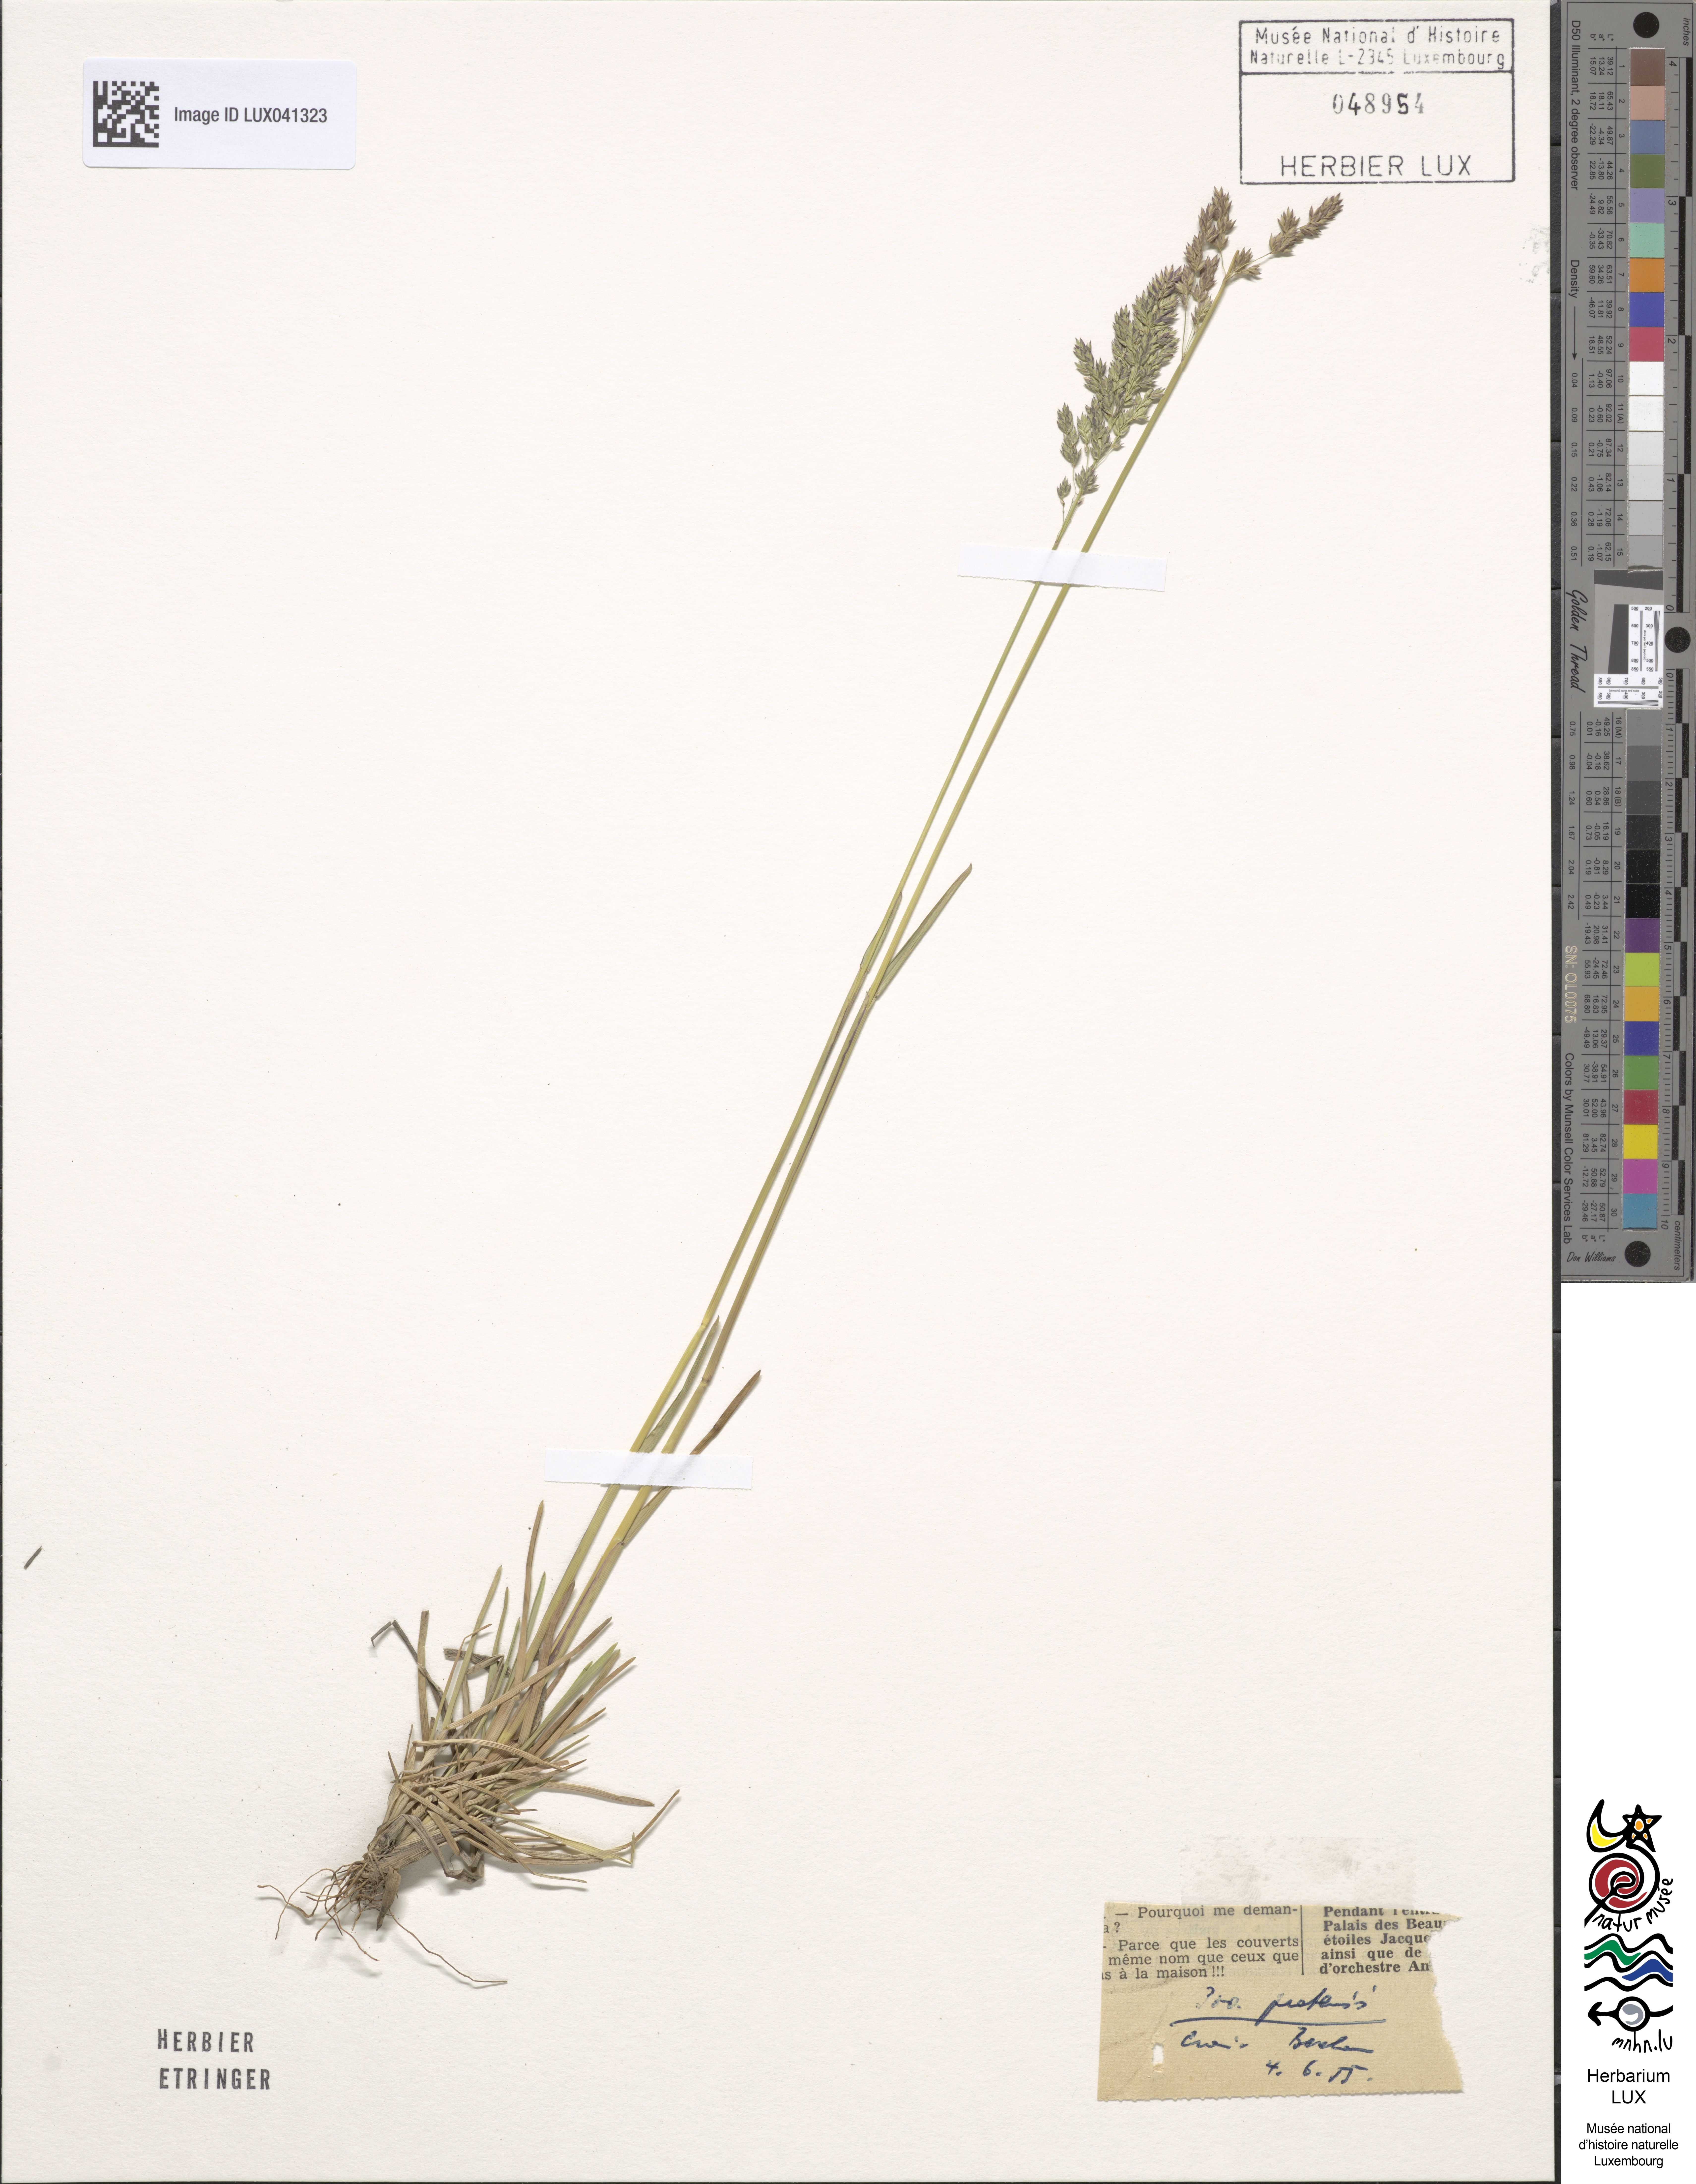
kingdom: Plantae
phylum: Tracheophyta
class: Liliopsida
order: Poales
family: Poaceae
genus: Poa
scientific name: Poa pratensis
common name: Kentucky bluegrass
